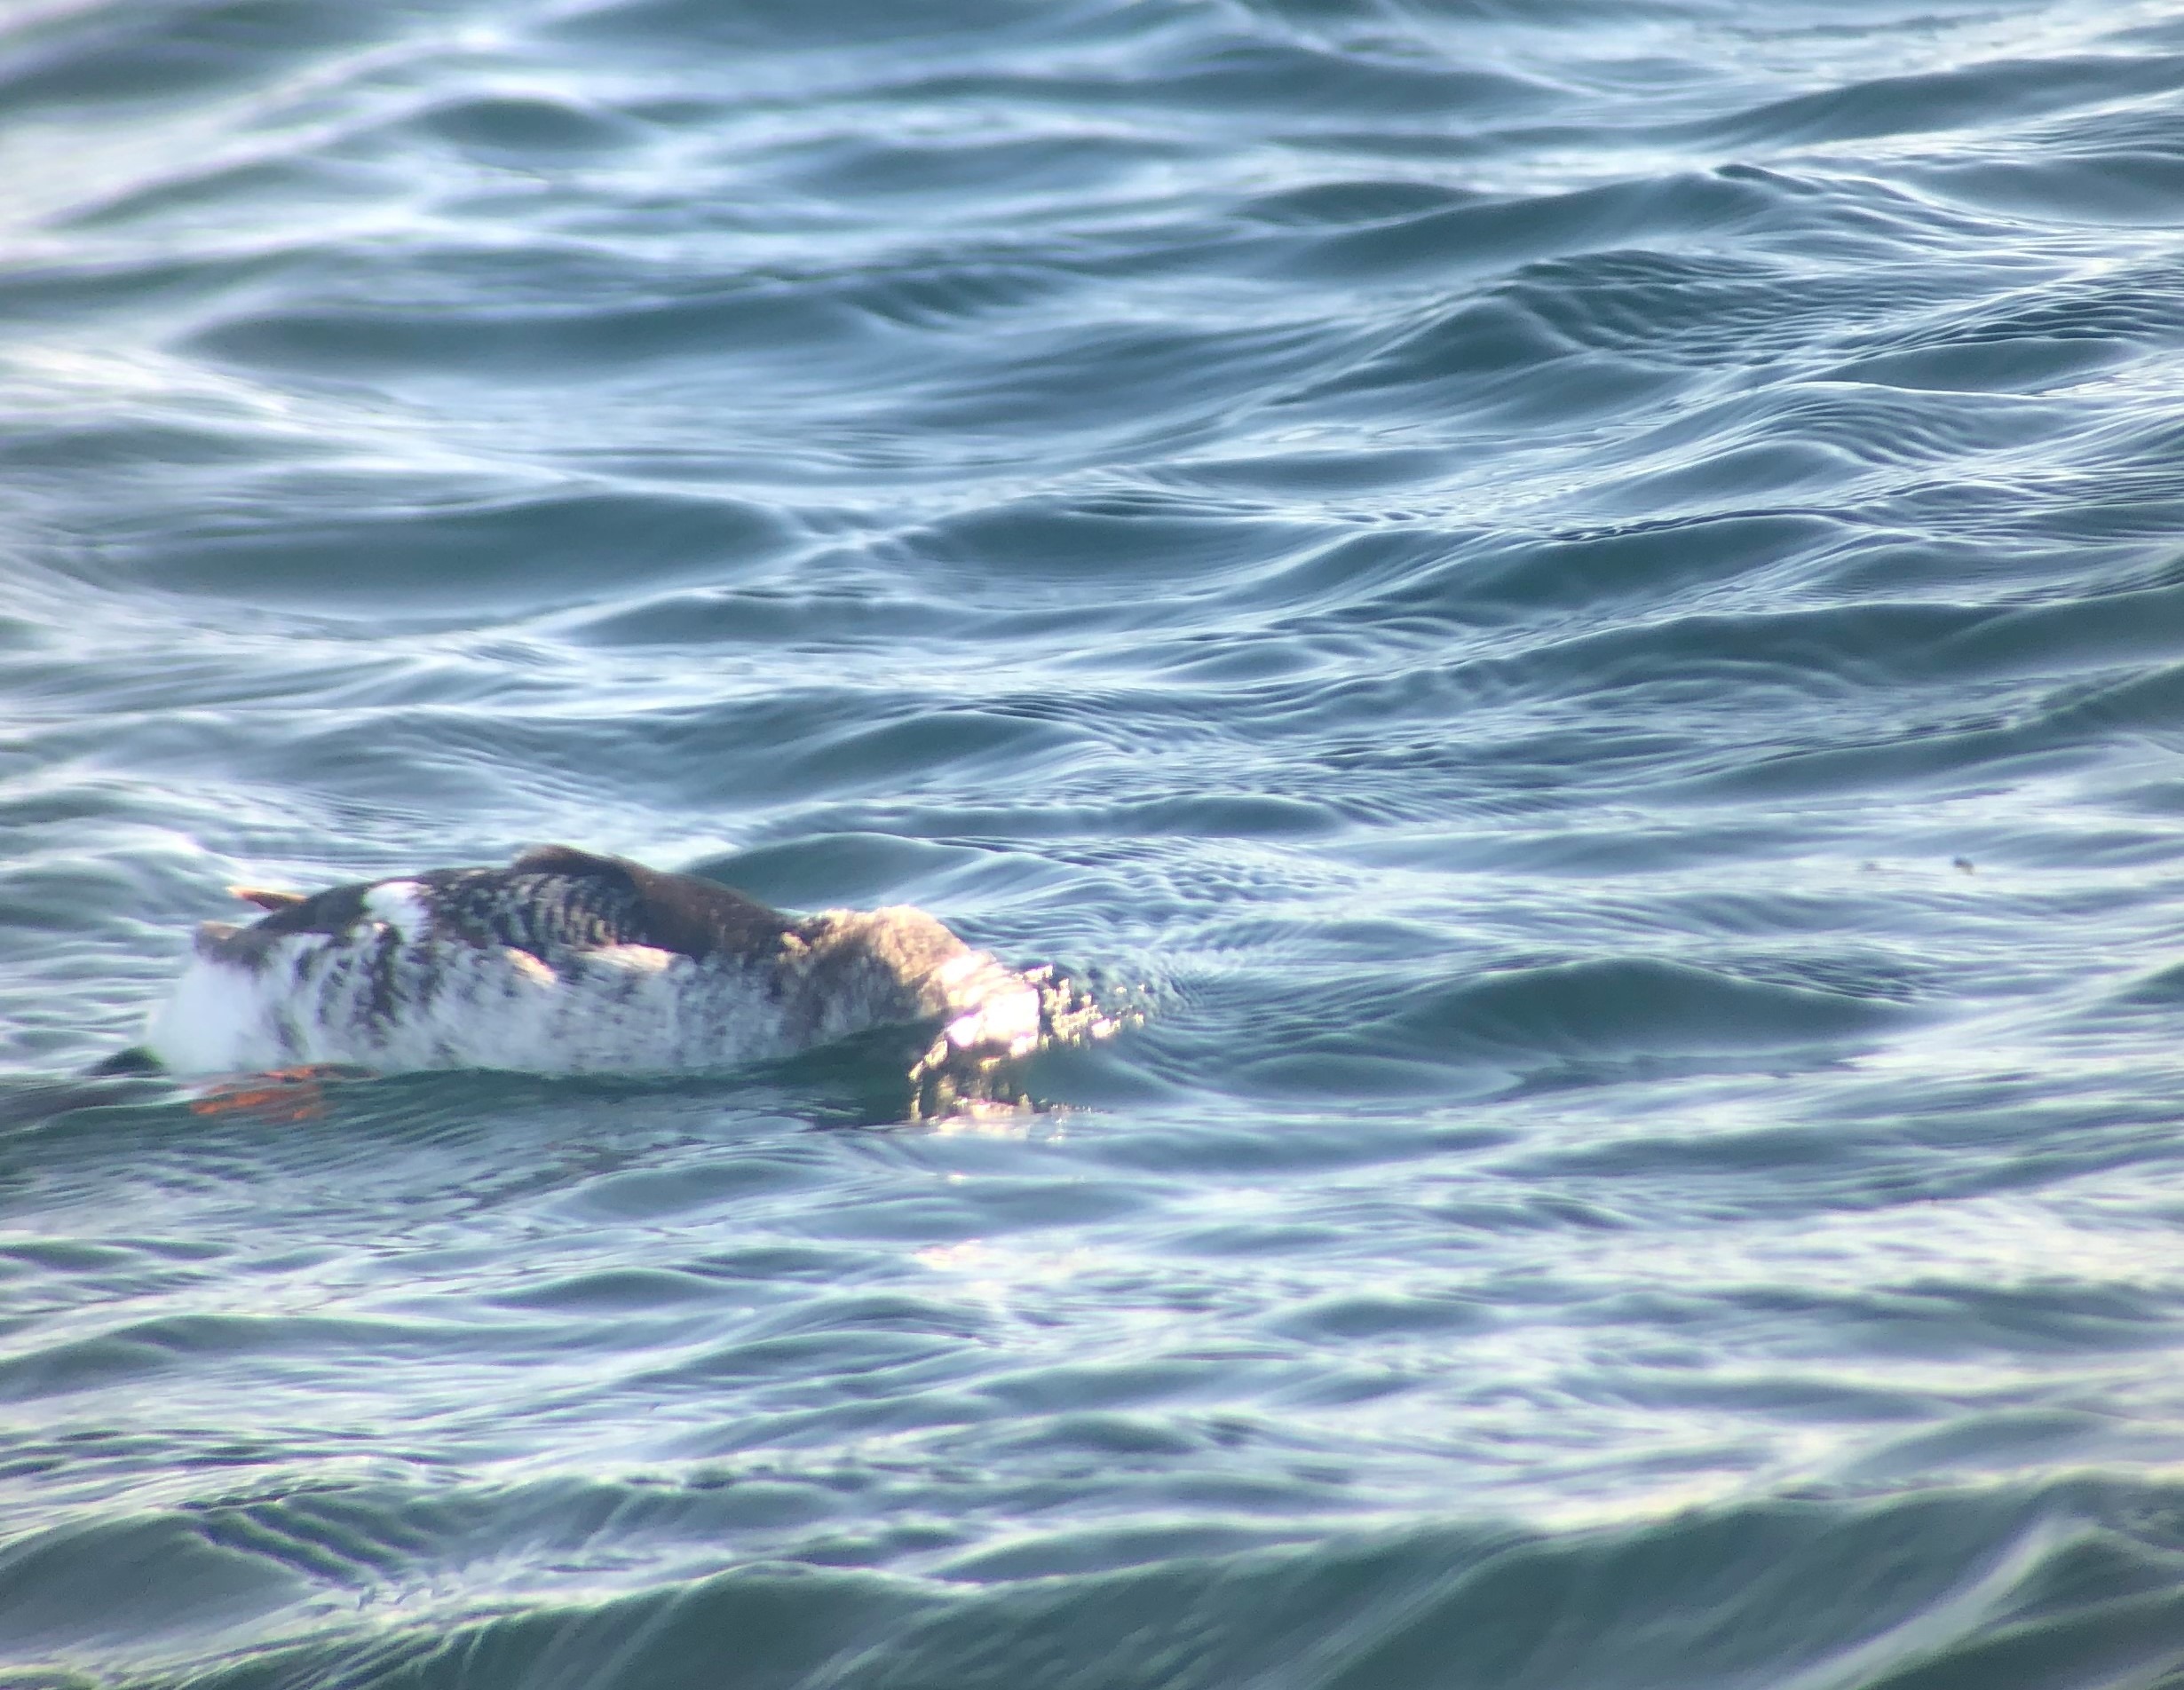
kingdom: Animalia
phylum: Chordata
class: Aves
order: Charadriiformes
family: Alcidae
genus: Cepphus
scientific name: Cepphus grylle
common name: Tejst
